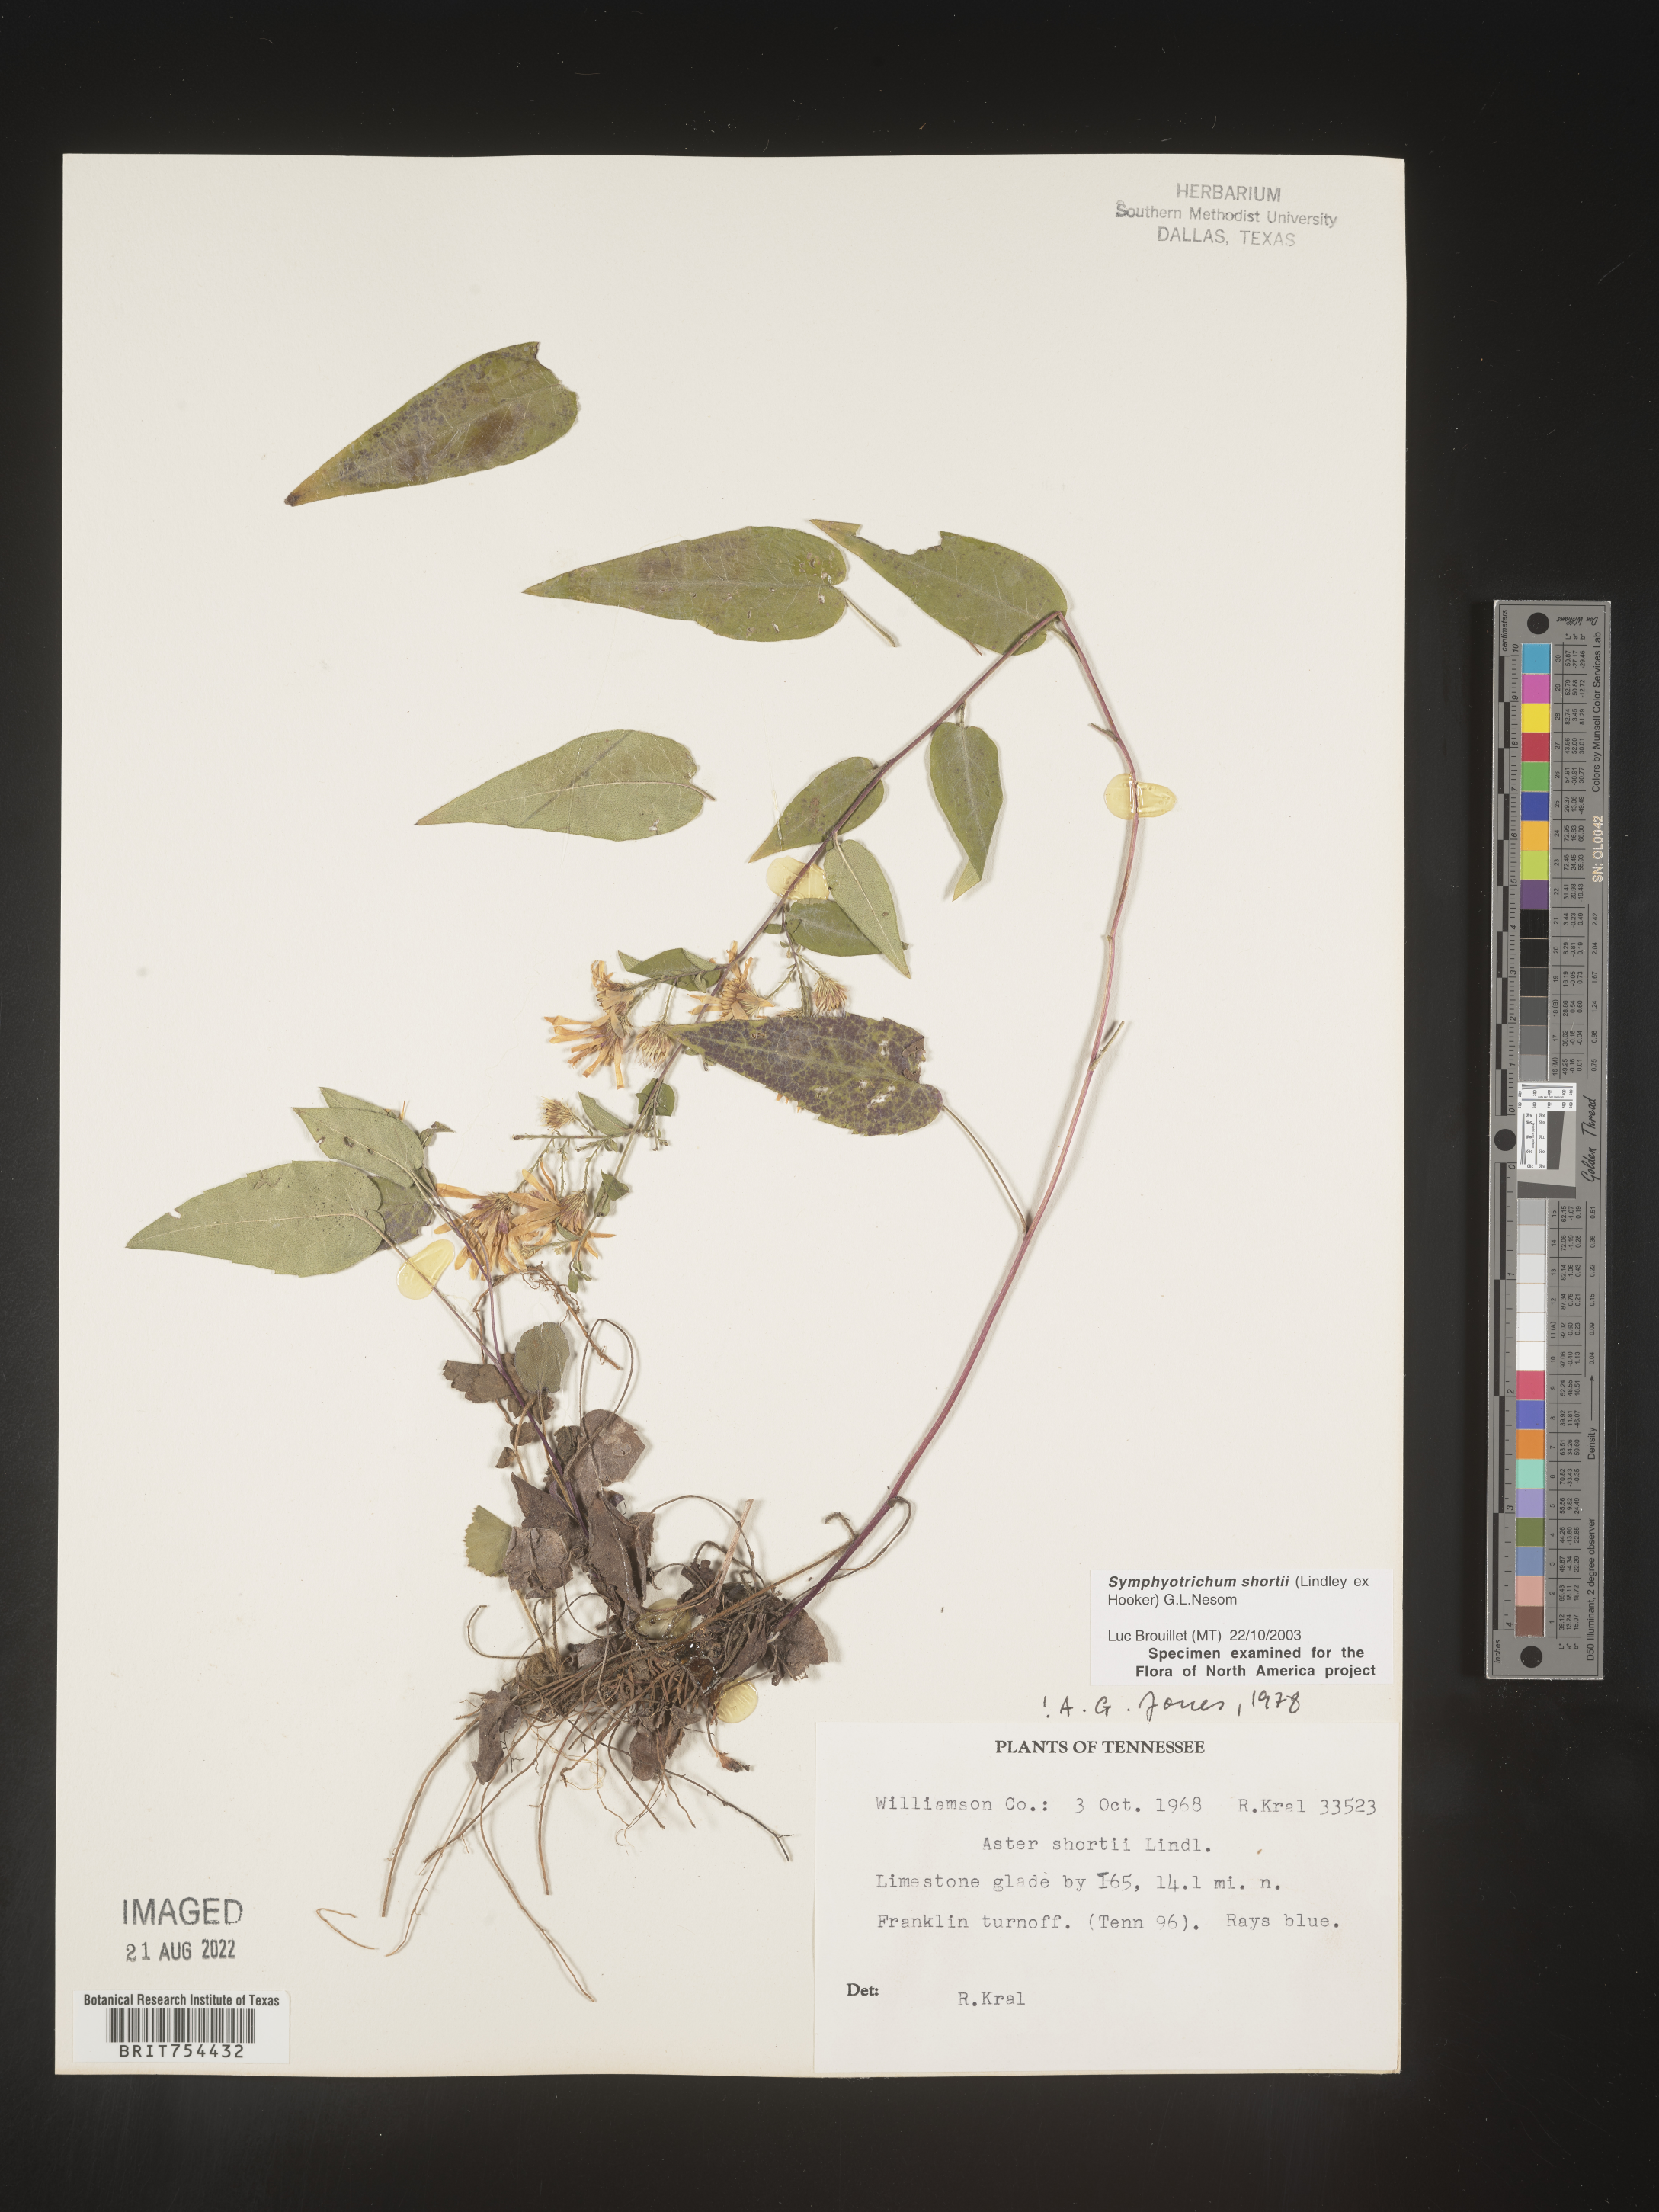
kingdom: Plantae
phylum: Tracheophyta
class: Magnoliopsida
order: Asterales
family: Asteraceae
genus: Symphyotrichum
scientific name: Symphyotrichum shortii
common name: Short's aster
